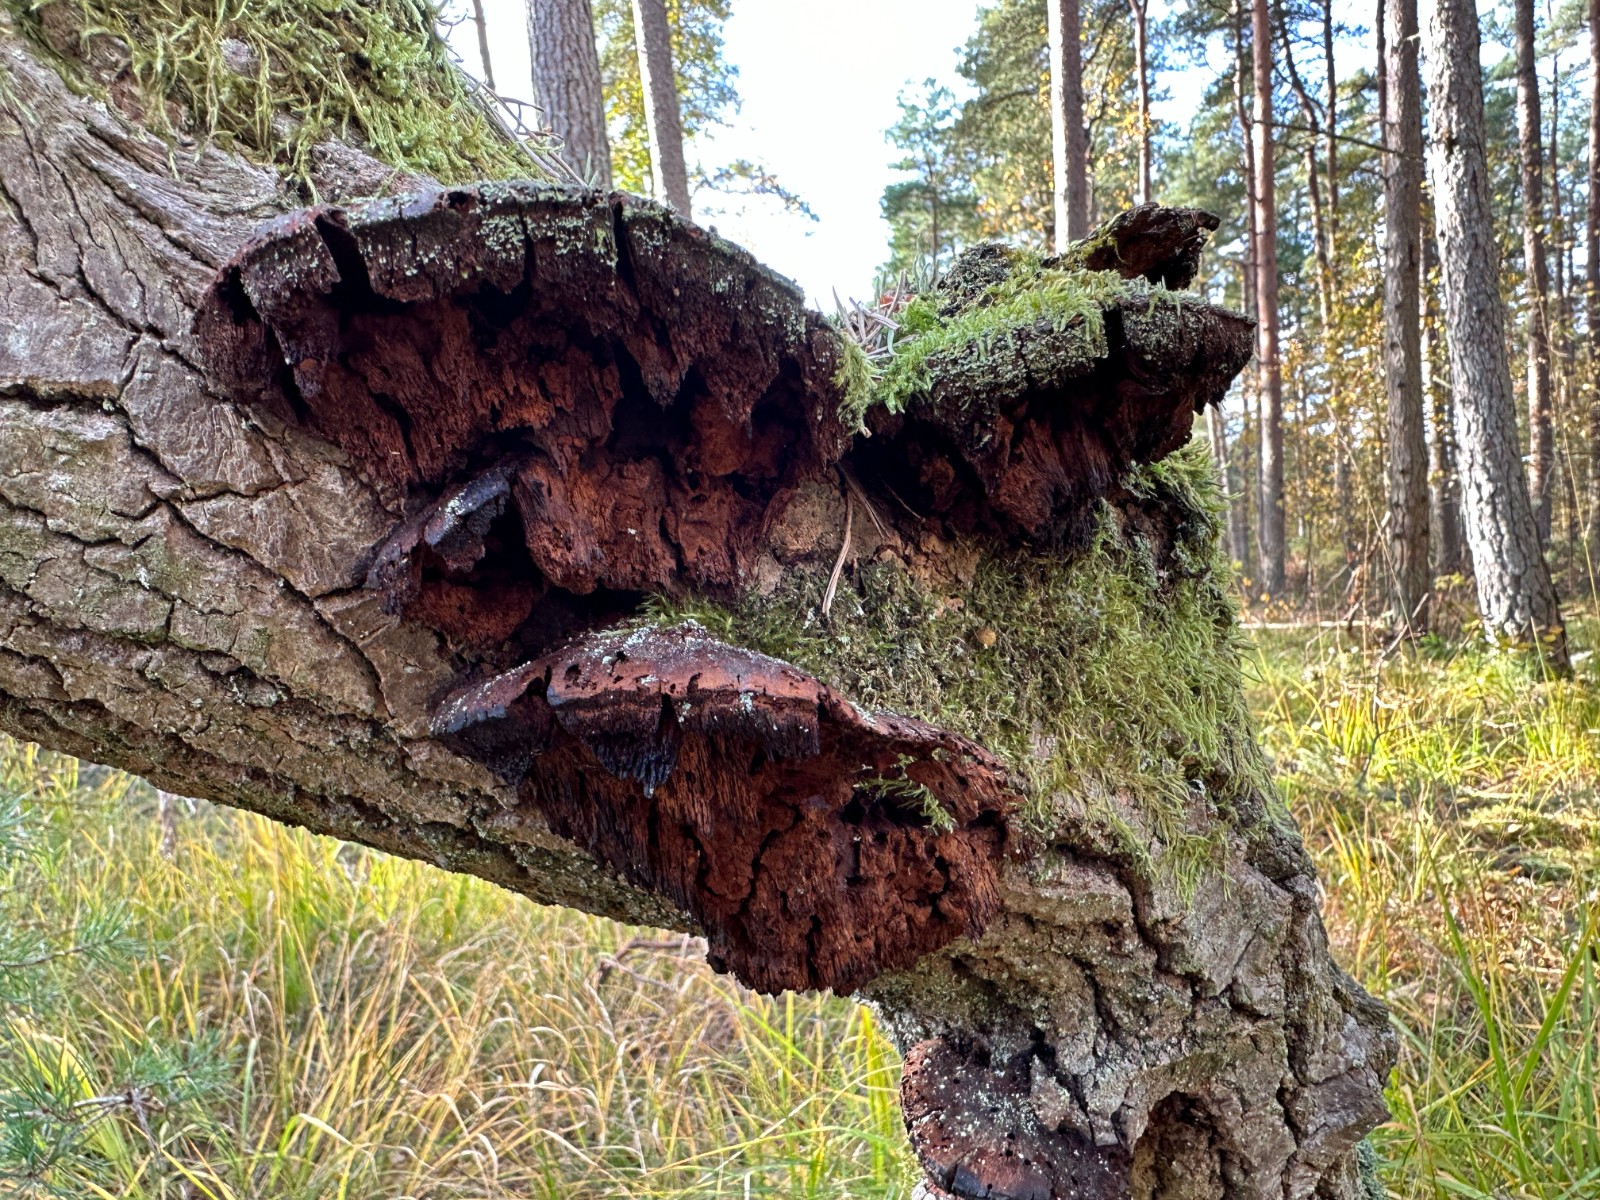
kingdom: Fungi
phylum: Basidiomycota
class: Agaricomycetes
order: Hymenochaetales
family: Hymenochaetaceae
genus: Xanthoporia
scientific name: Xanthoporia radiata
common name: elle-spejlporesvamp
